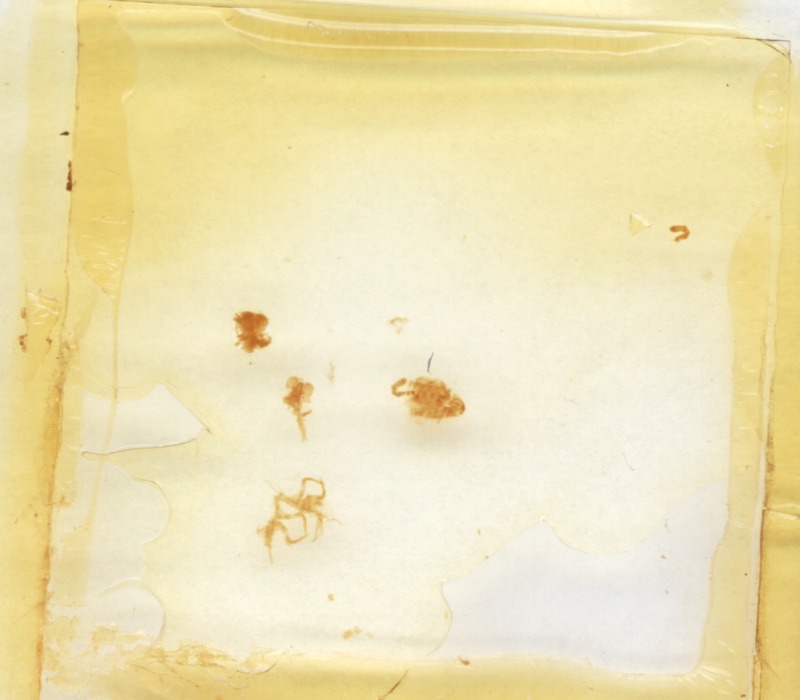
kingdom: Animalia
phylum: Arthropoda
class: Diplopoda
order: Glomerida
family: Glomeridae
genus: Onychoglomeris
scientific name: Onychoglomeris castanea
